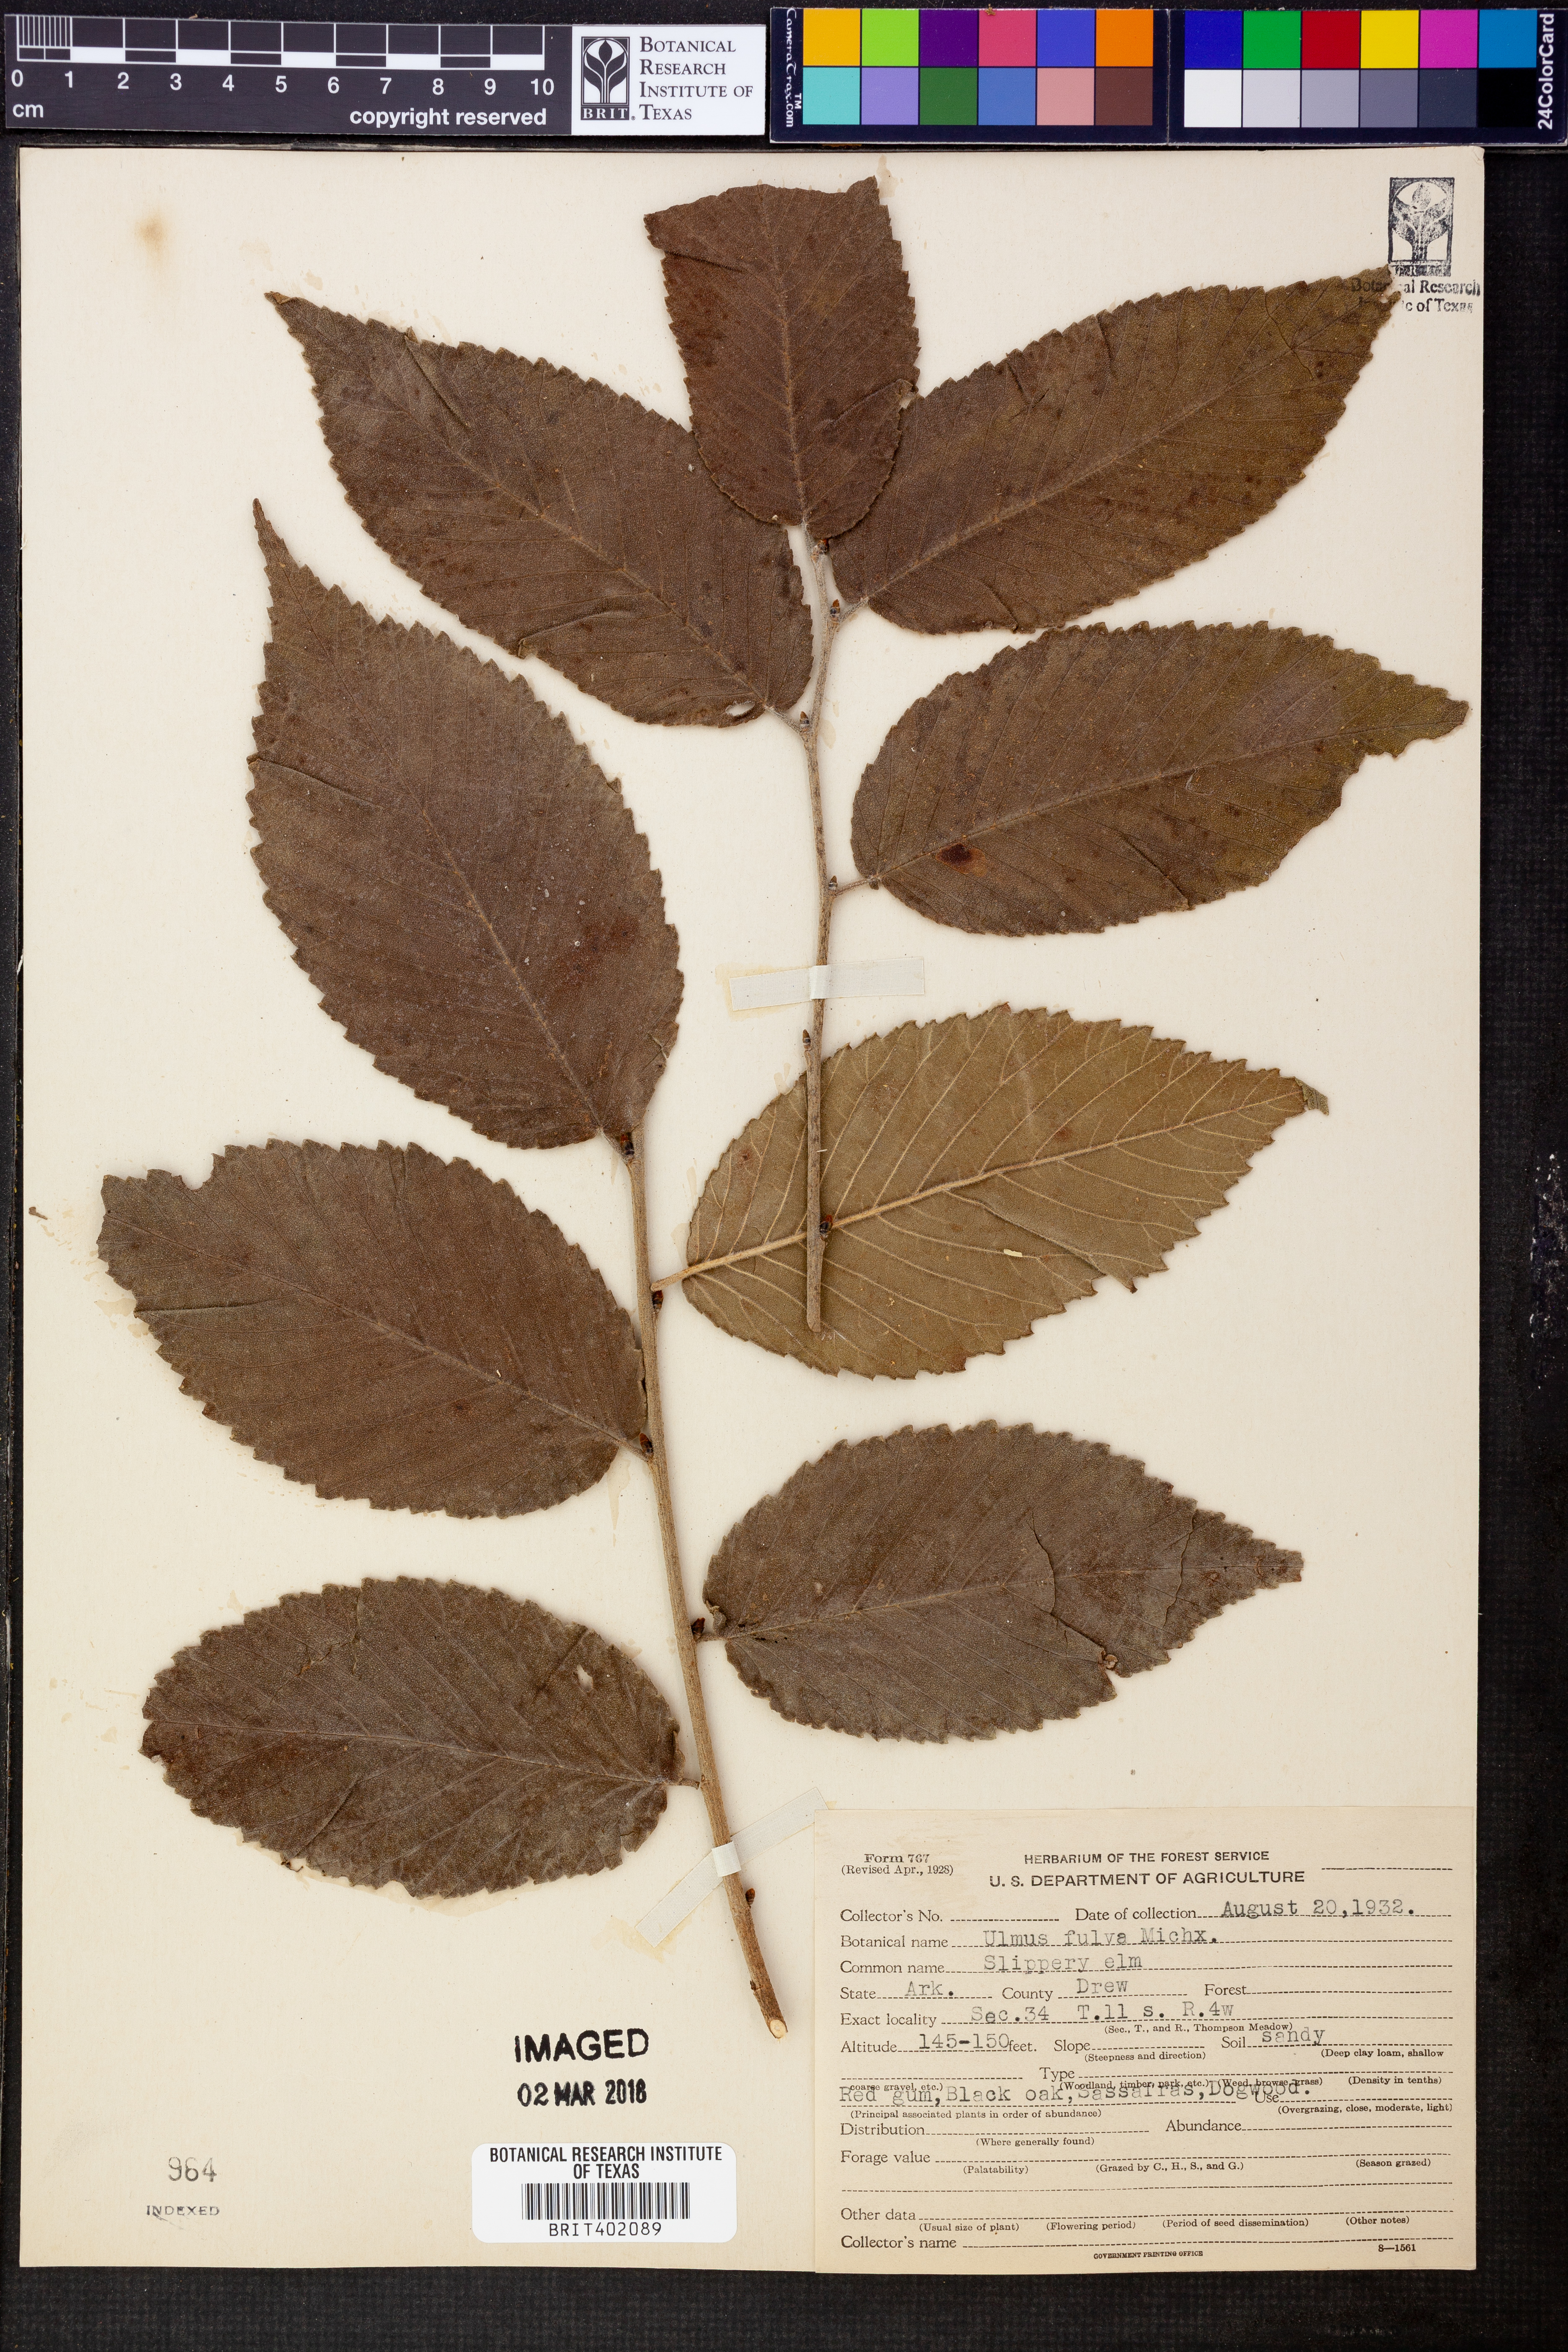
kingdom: Plantae
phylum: Tracheophyta
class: Magnoliopsida
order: Rosales
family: Ulmaceae
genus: Ulmus
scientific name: Ulmus rubra
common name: Slippery elm
